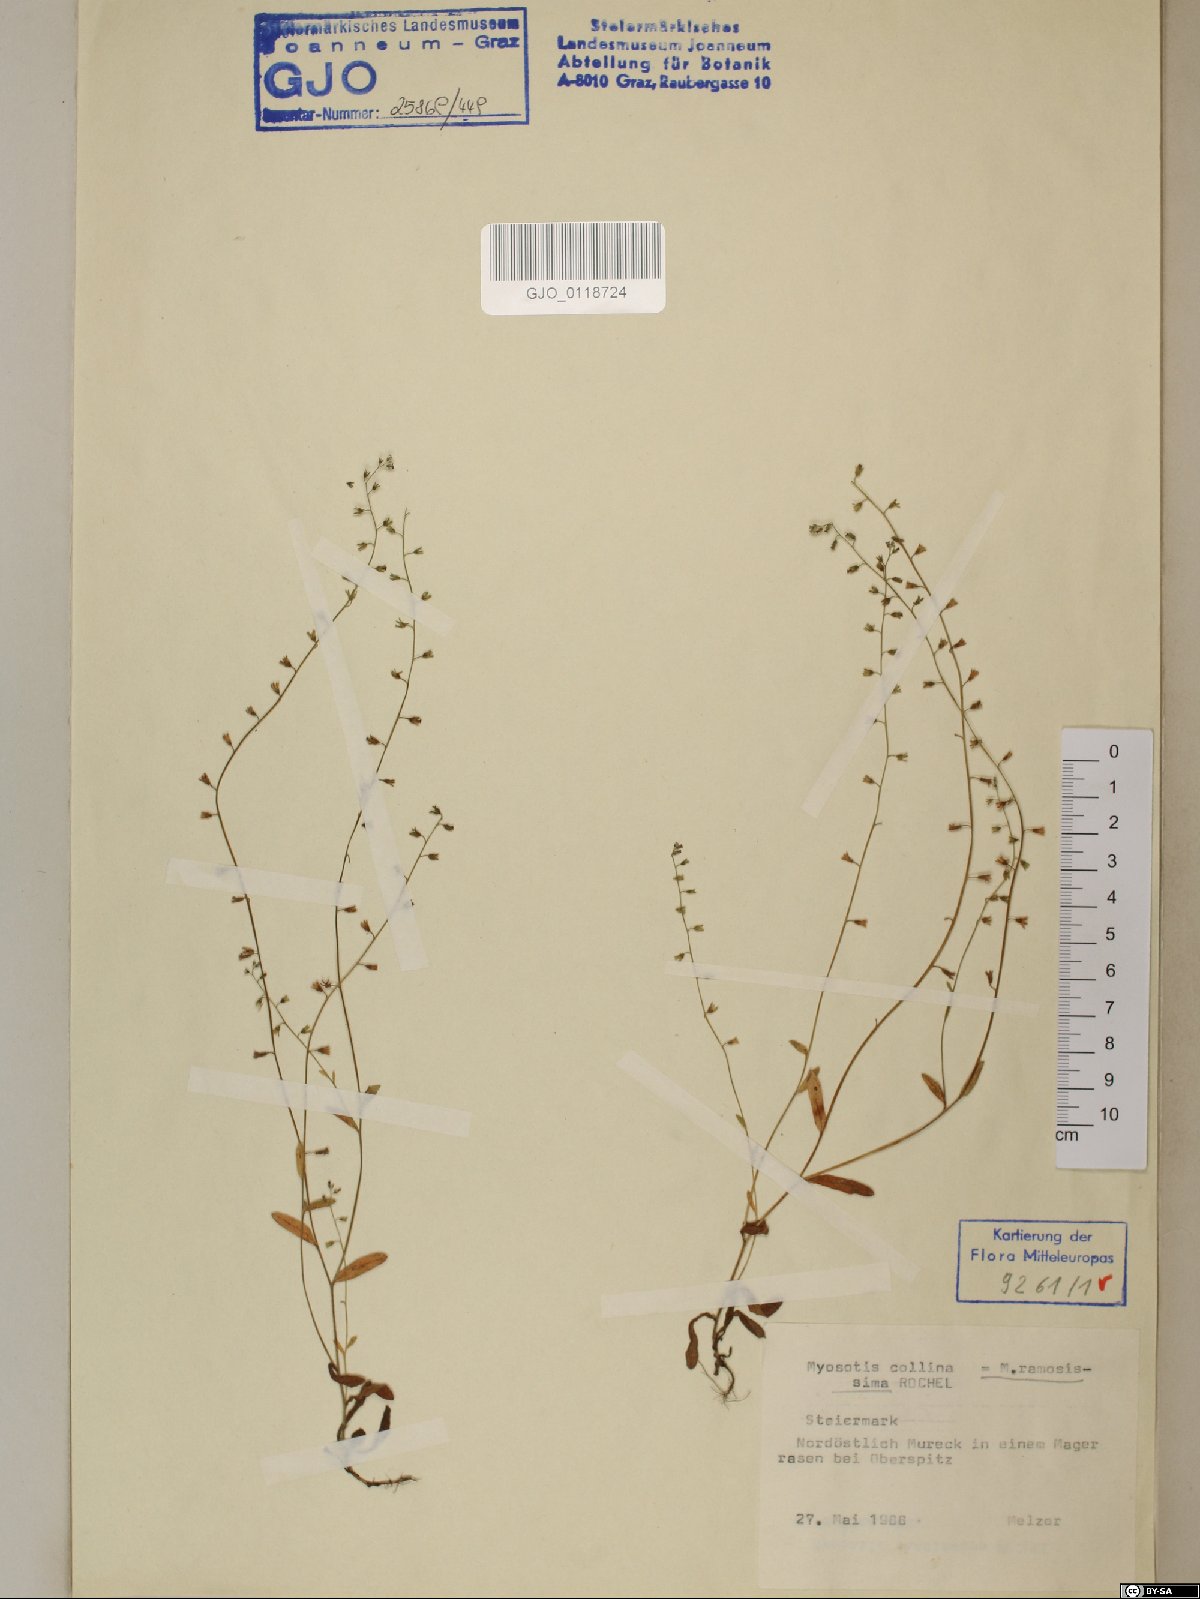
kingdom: Plantae
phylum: Tracheophyta
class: Magnoliopsida
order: Boraginales
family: Boraginaceae
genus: Myosotis
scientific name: Myosotis ramosissima
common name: Early forget-me-not
